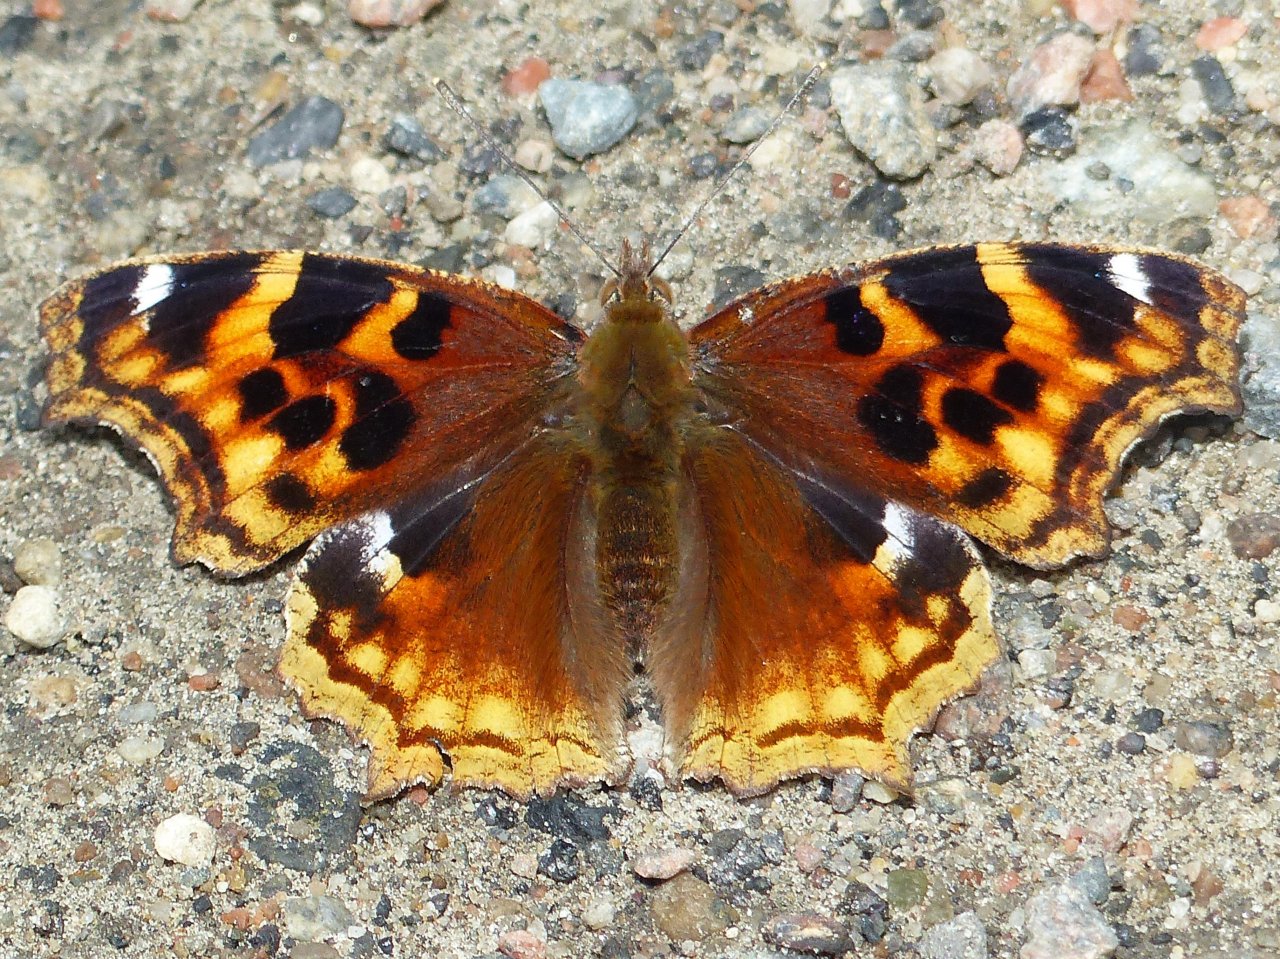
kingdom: Animalia
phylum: Arthropoda
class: Insecta
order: Lepidoptera
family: Nymphalidae
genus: Polygonia
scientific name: Polygonia vaualbum
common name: Compton Tortoiseshell
